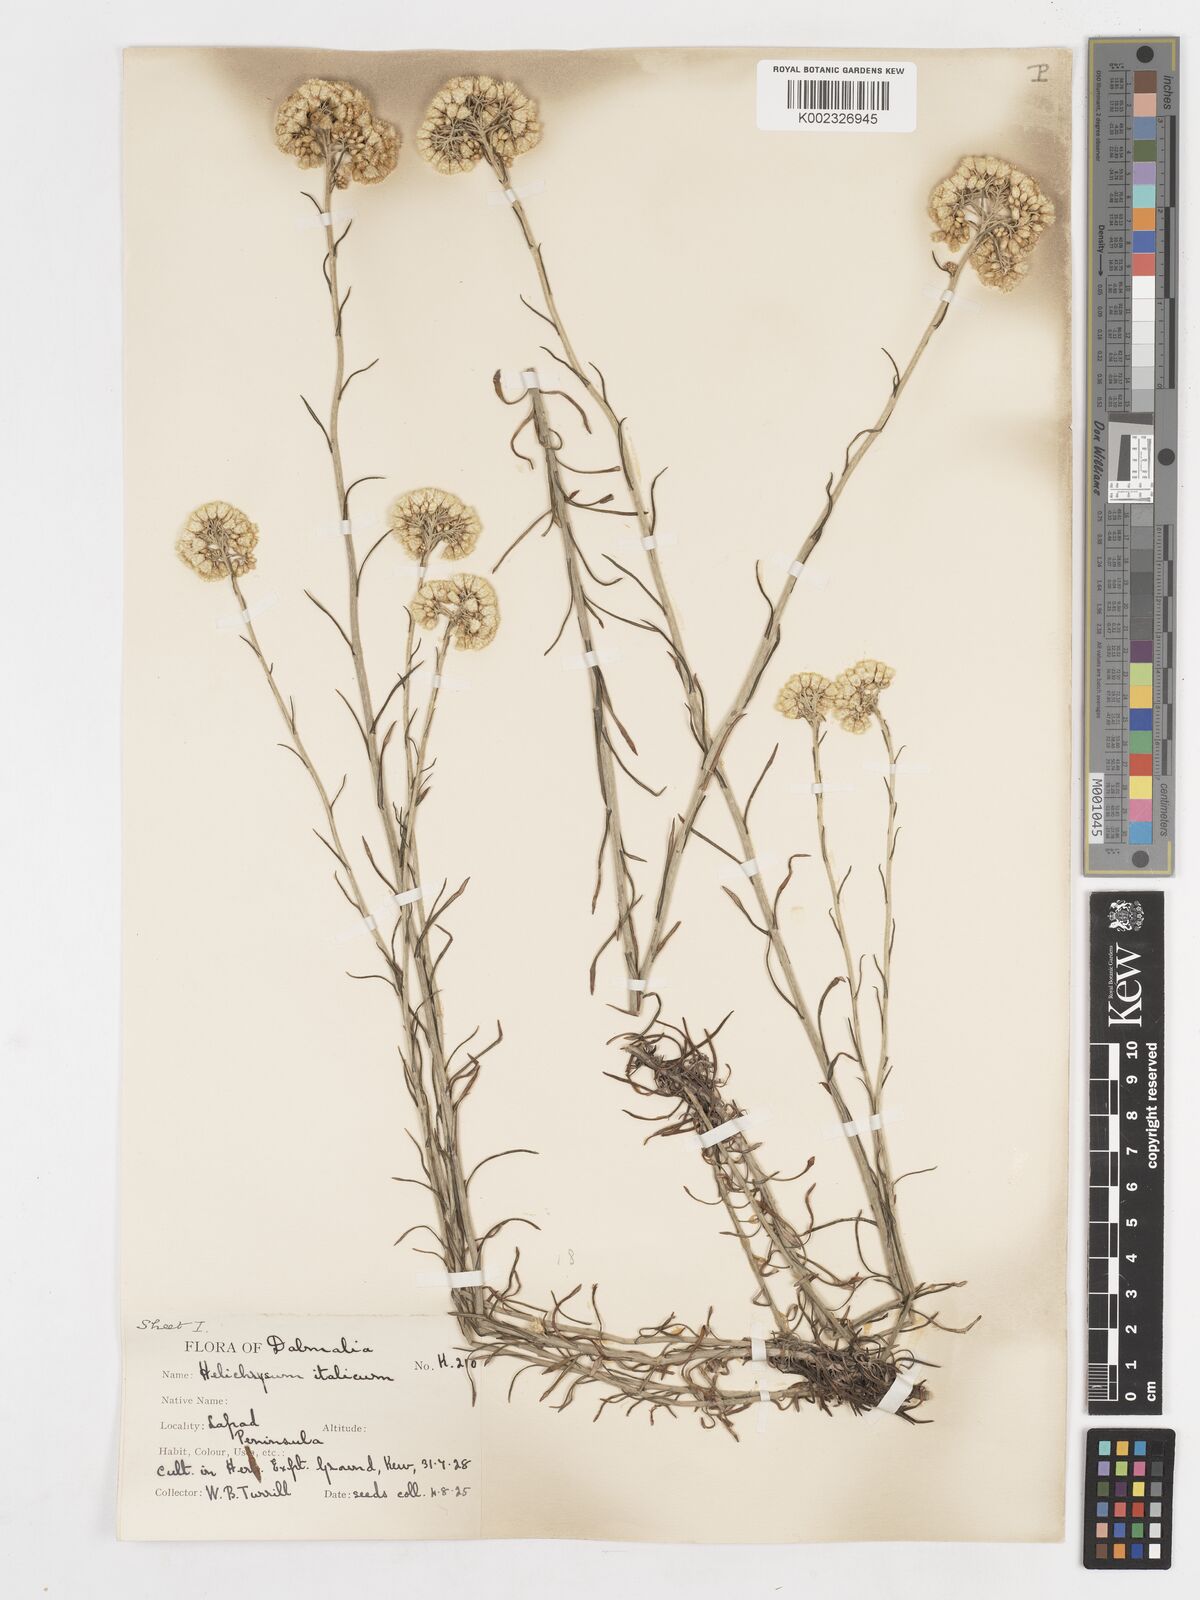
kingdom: Plantae
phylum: Tracheophyta
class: Magnoliopsida
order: Asterales
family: Asteraceae
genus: Helichrysum
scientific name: Helichrysum italicum
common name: Curryplant
